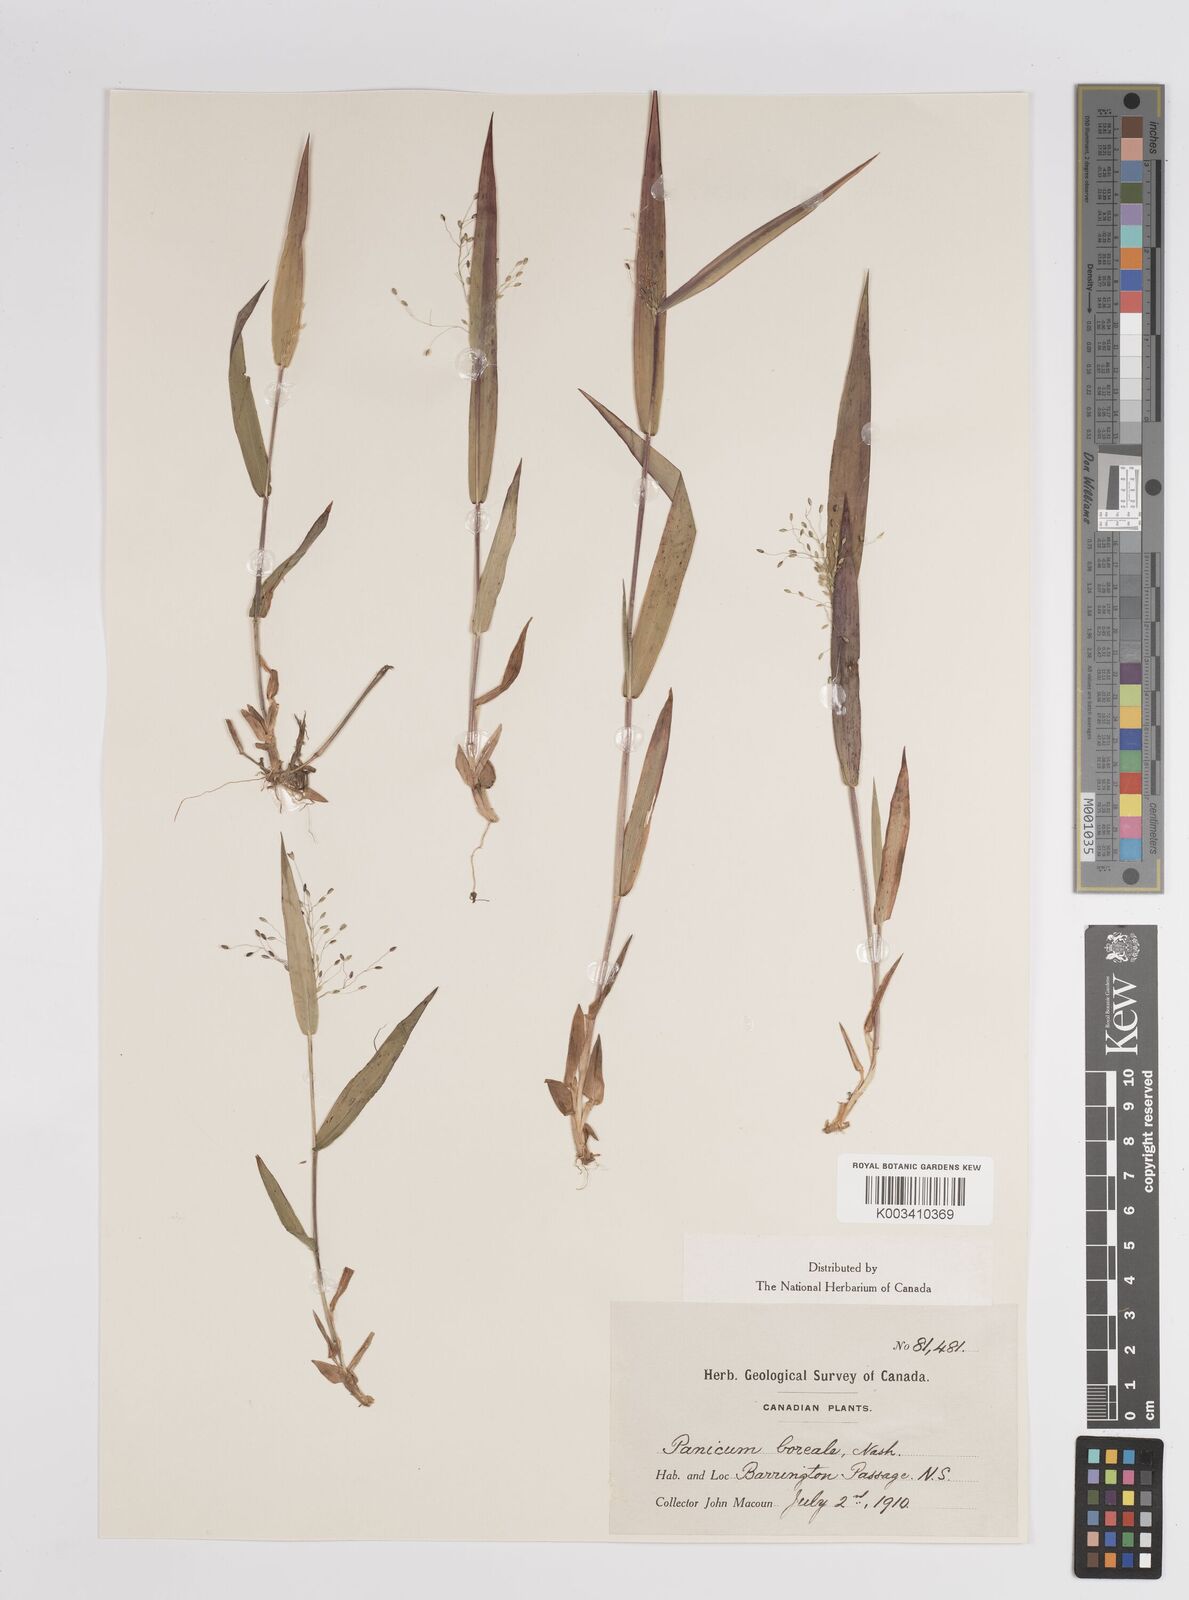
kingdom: Plantae
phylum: Tracheophyta
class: Liliopsida
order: Poales
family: Poaceae
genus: Dichanthelium
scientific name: Dichanthelium boreale
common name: Northern panicgrass
